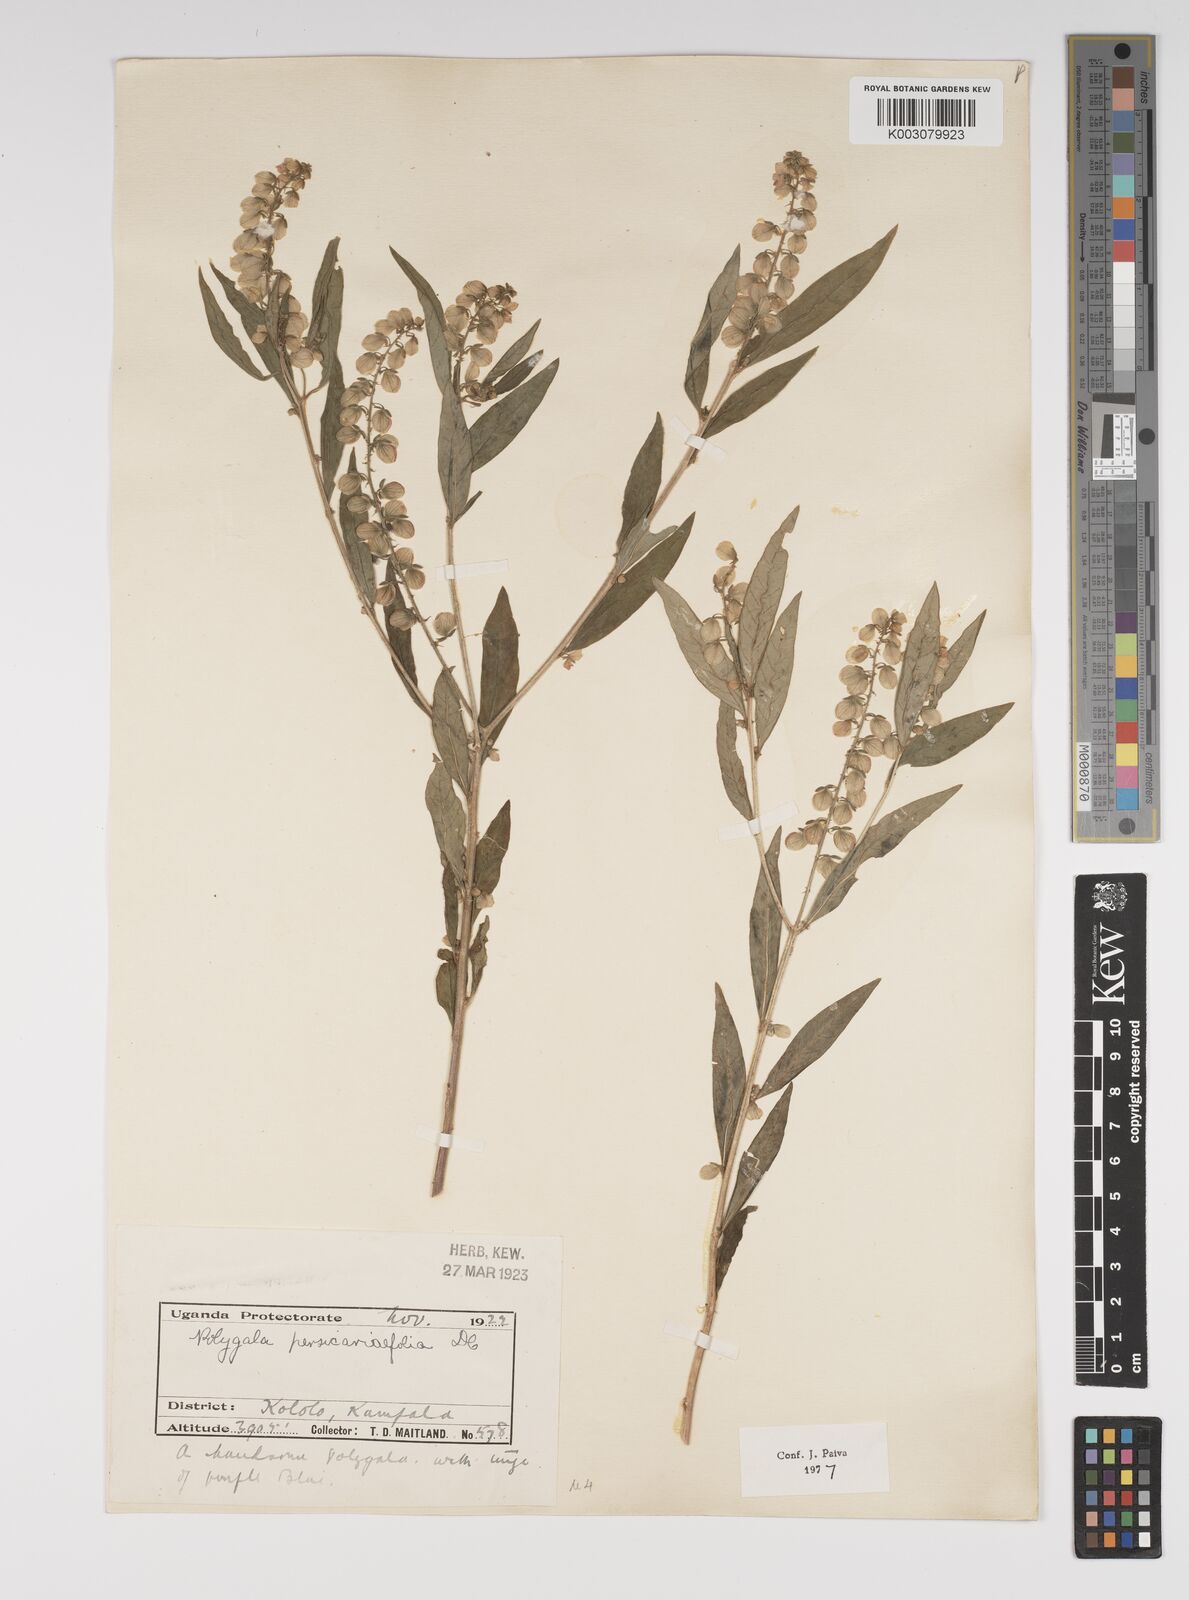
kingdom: Plantae
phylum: Tracheophyta
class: Magnoliopsida
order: Fabales
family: Polygalaceae
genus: Polygala
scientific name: Polygala persicariifolia
